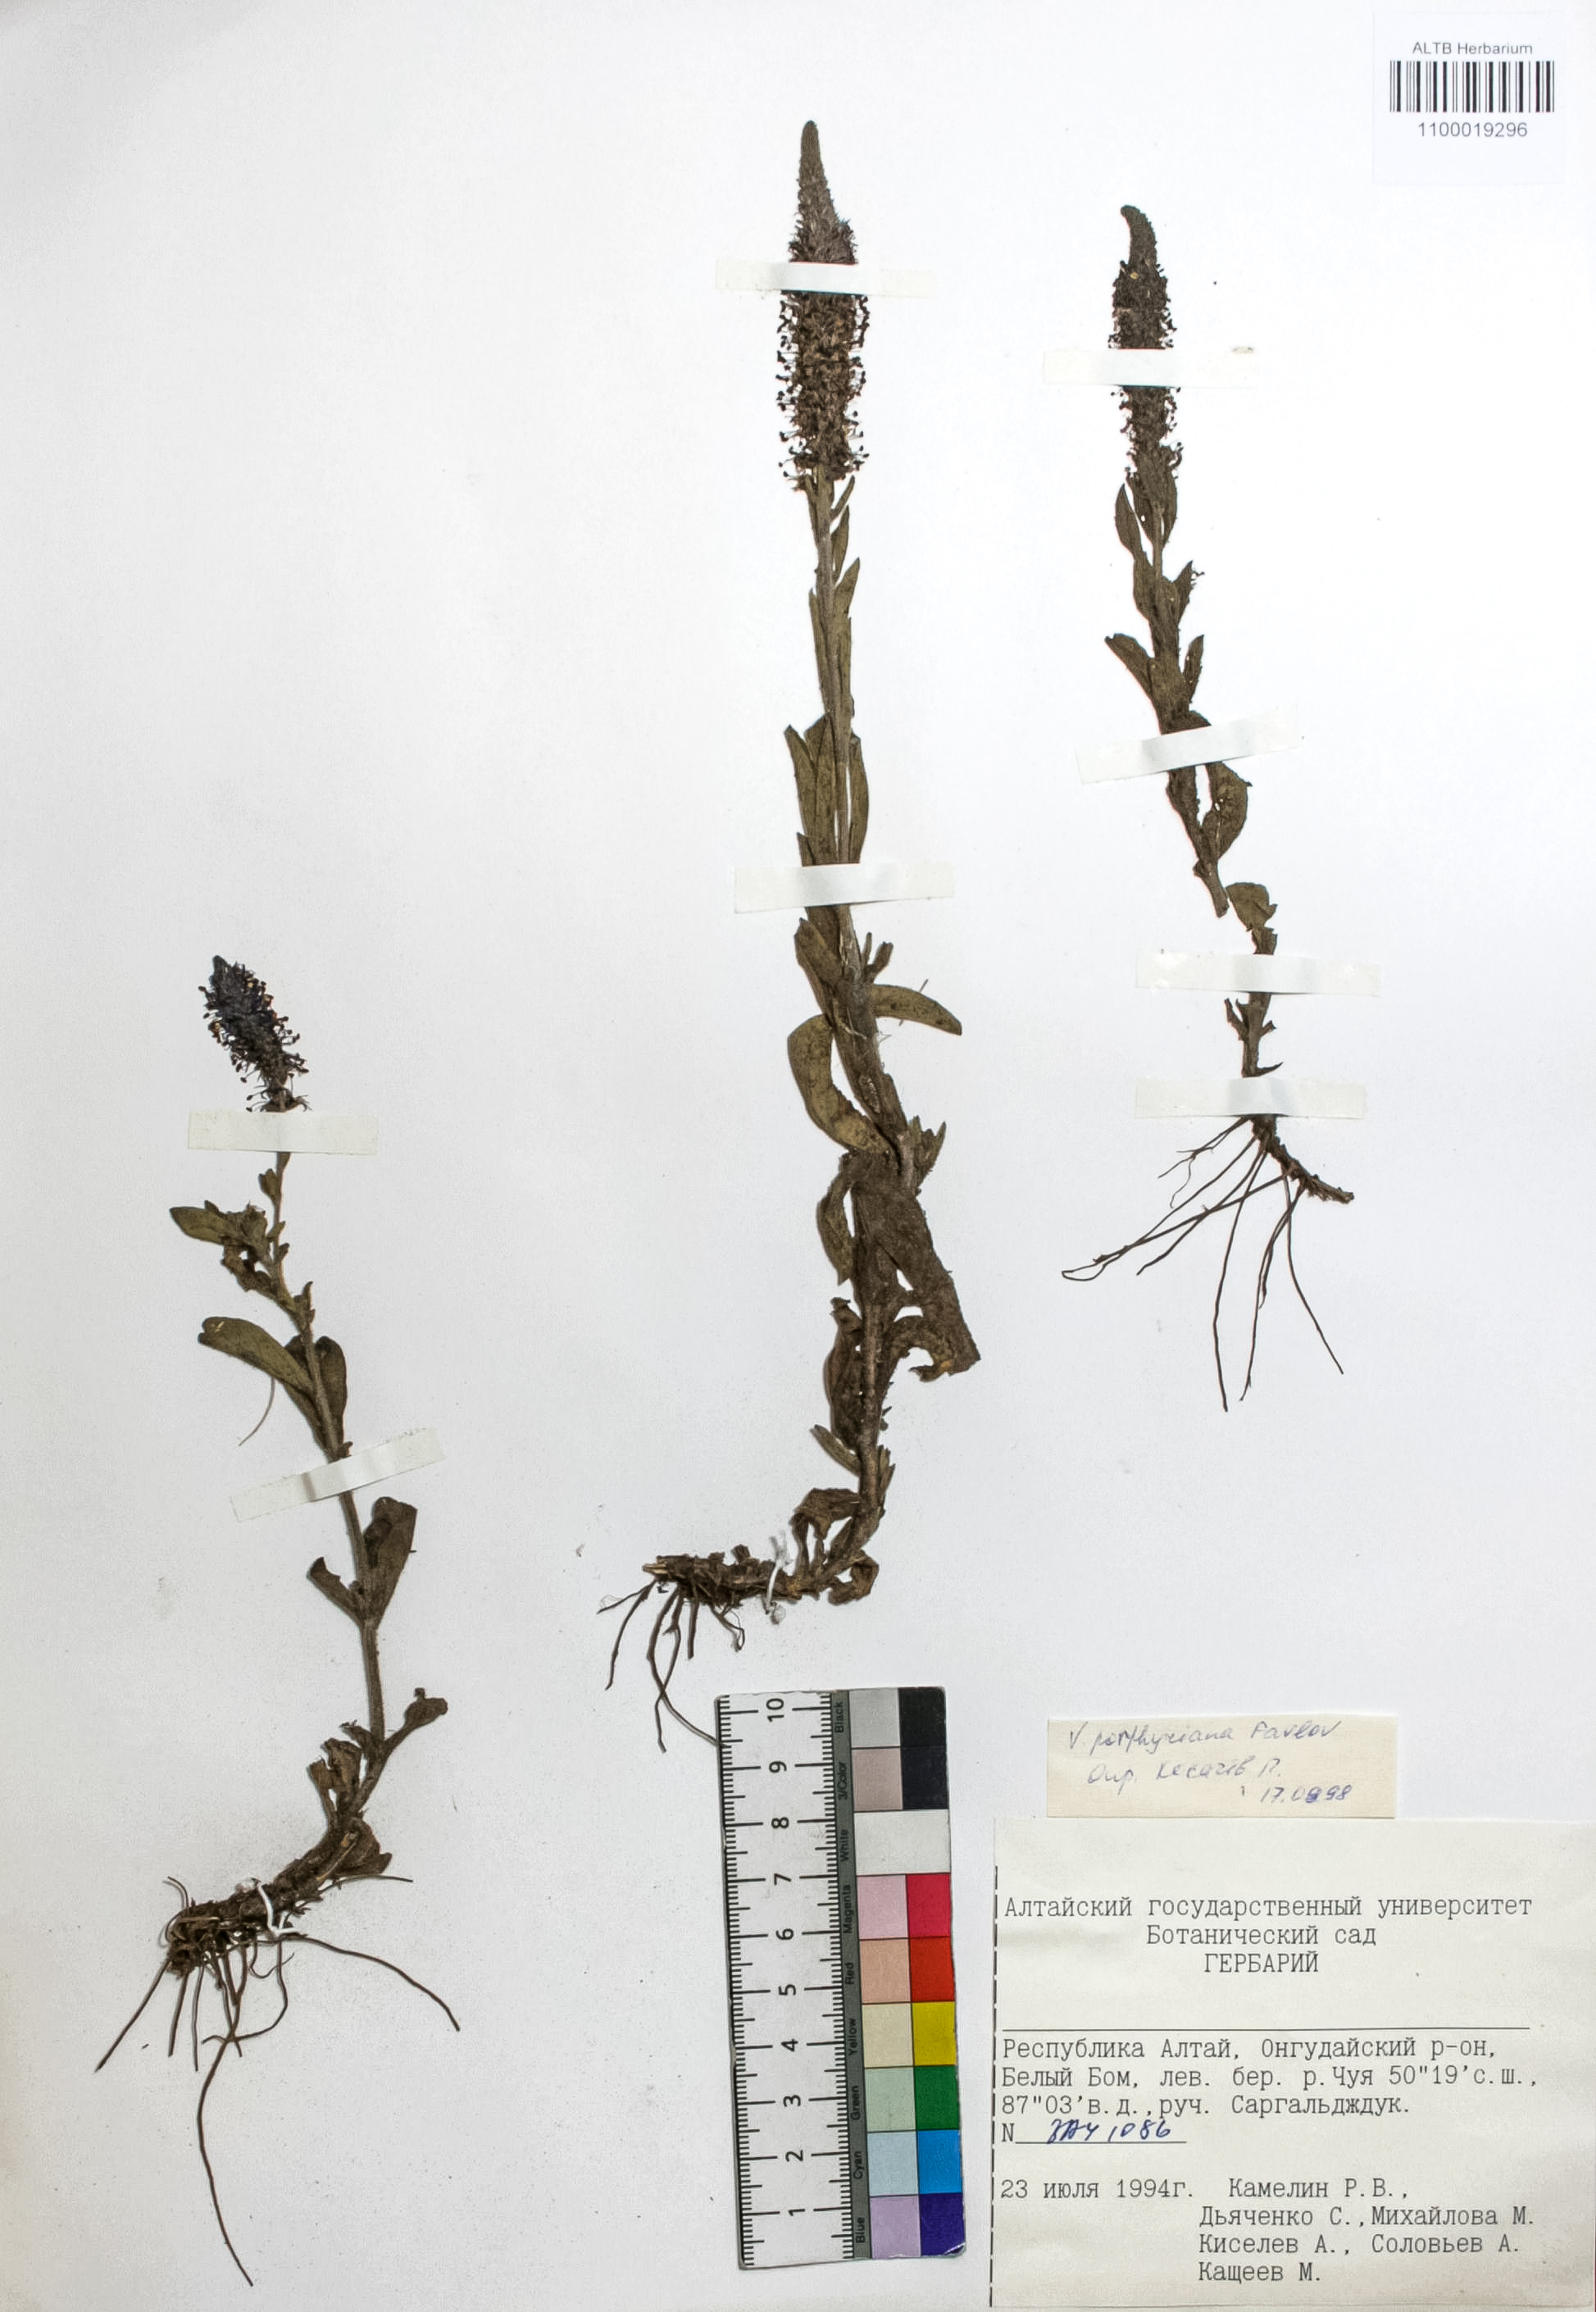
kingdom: Plantae
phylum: Tracheophyta
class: Magnoliopsida
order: Lamiales
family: Plantaginaceae
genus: Veronica
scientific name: Veronica porphyriana
